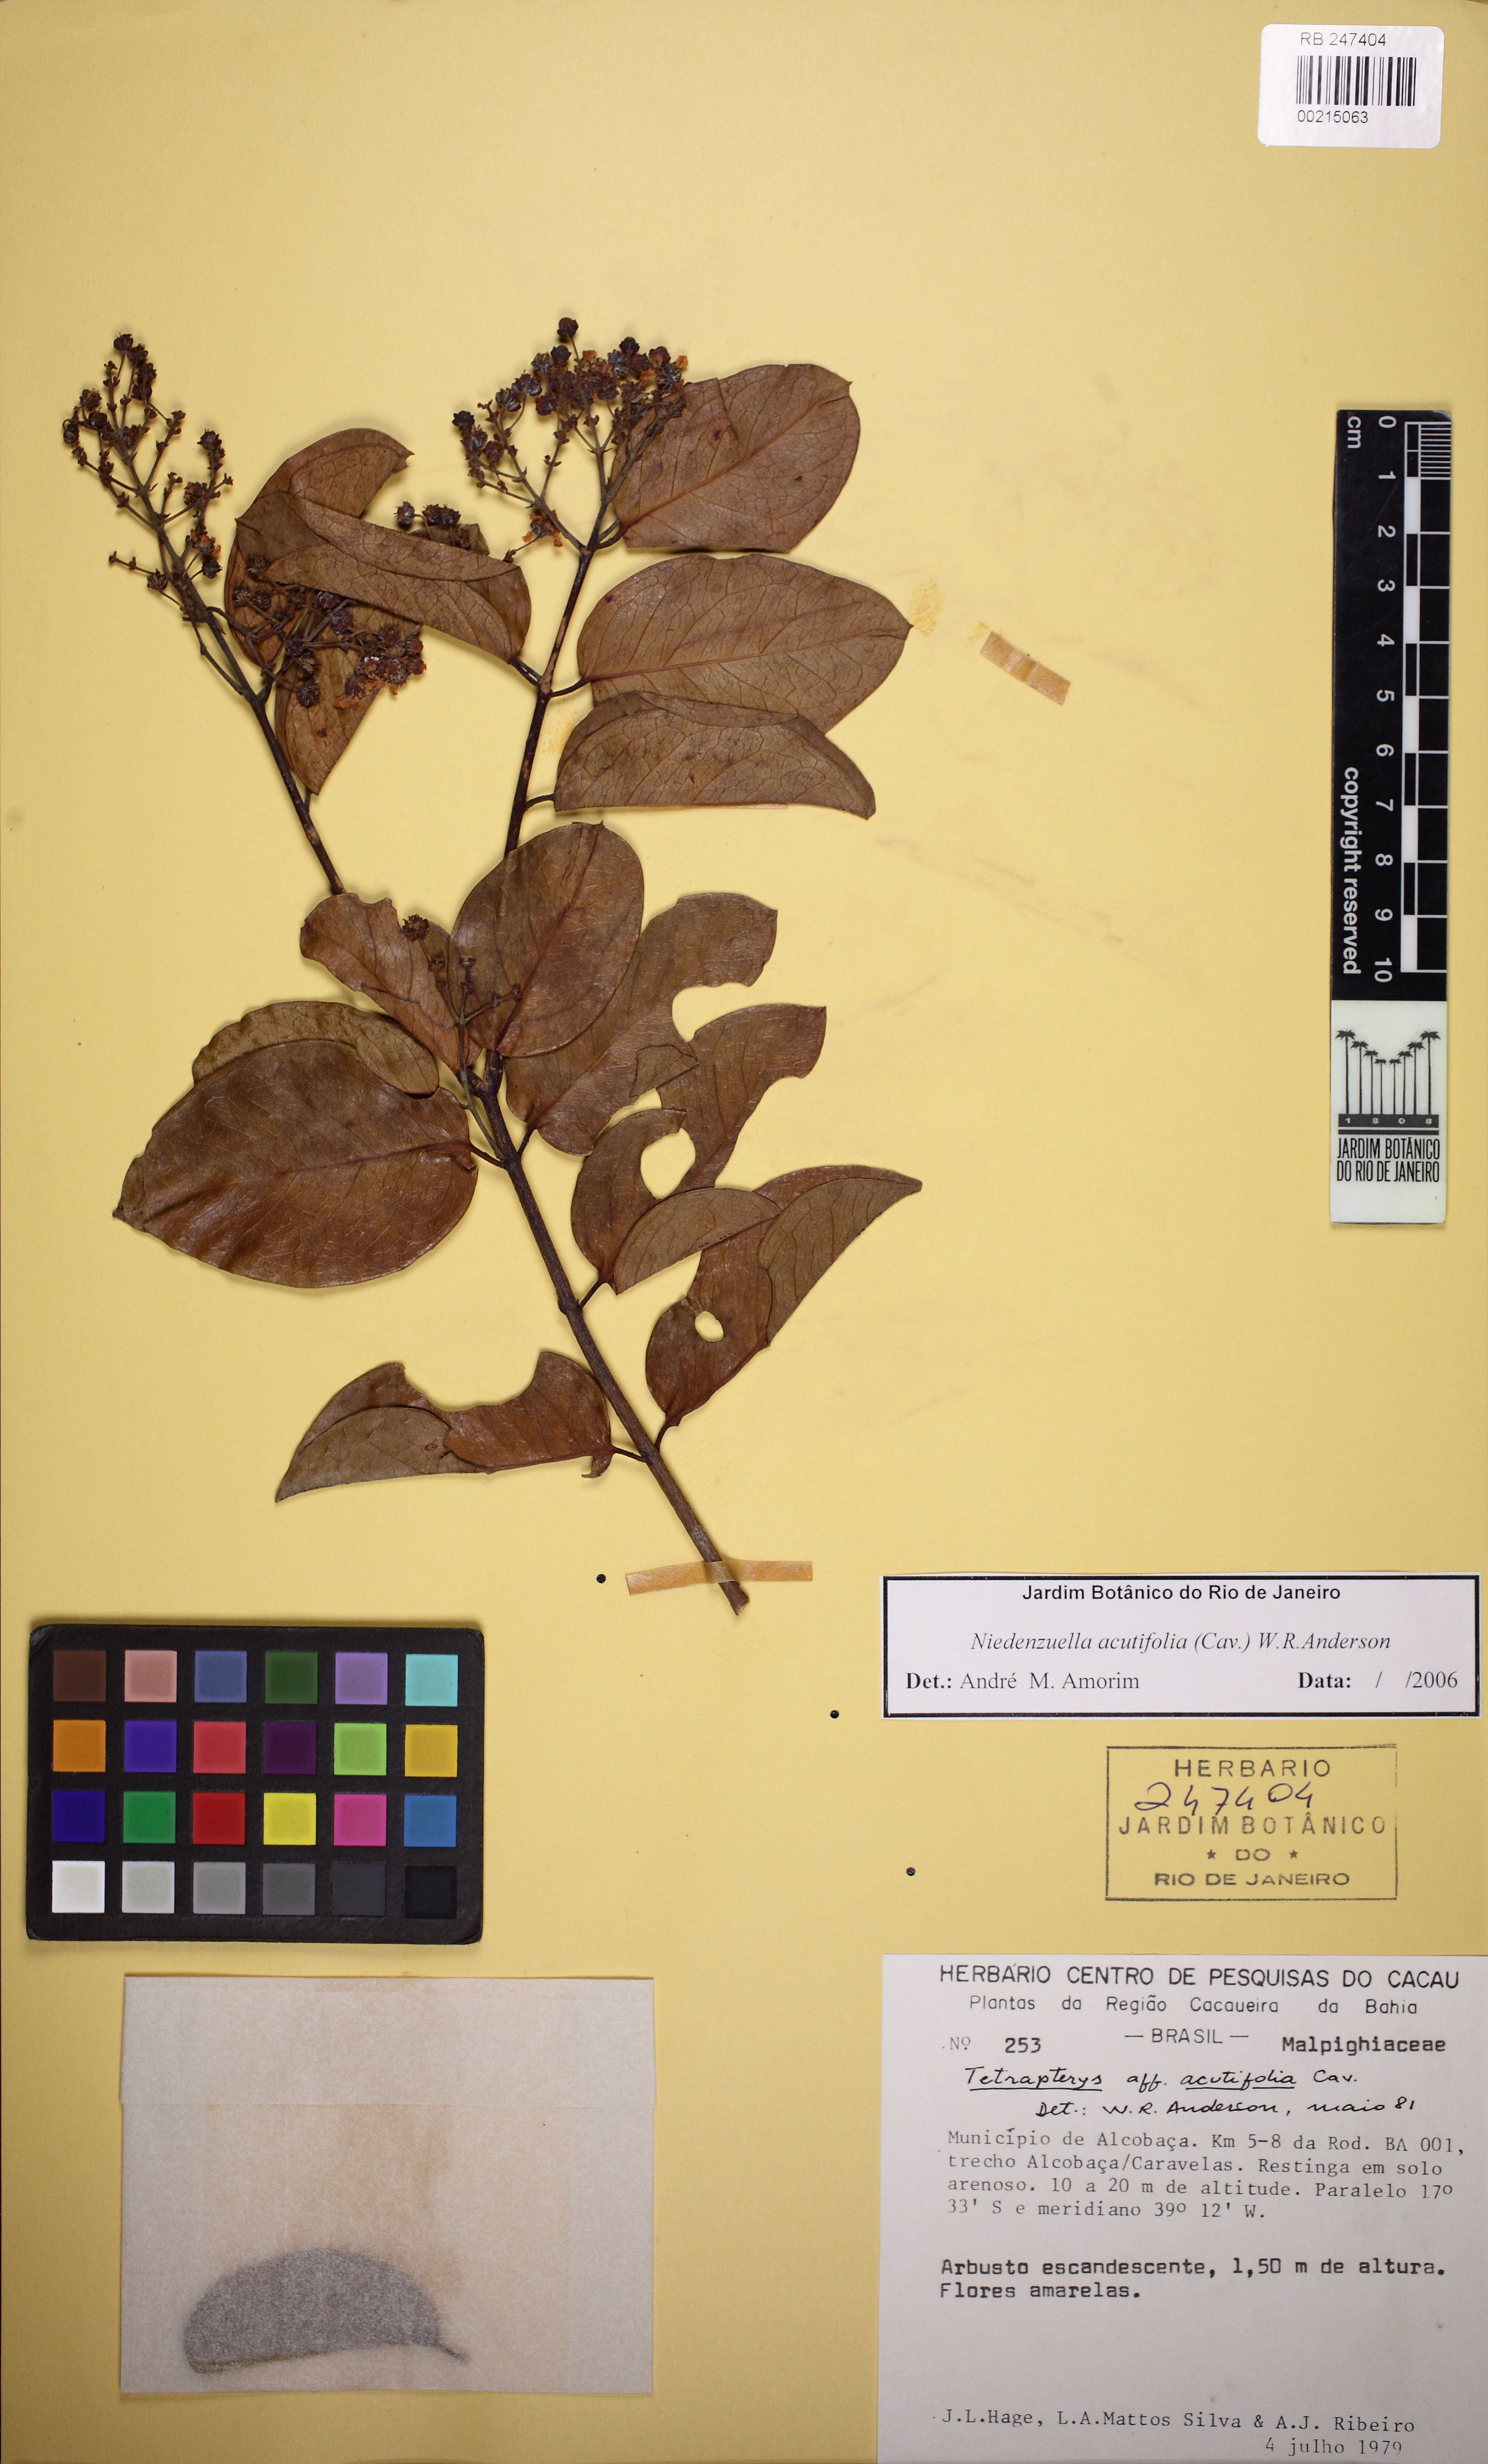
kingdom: Plantae
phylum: Tracheophyta
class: Magnoliopsida
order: Malpighiales
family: Malpighiaceae
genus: Niedenzuella
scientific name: Niedenzuella acutifolia
